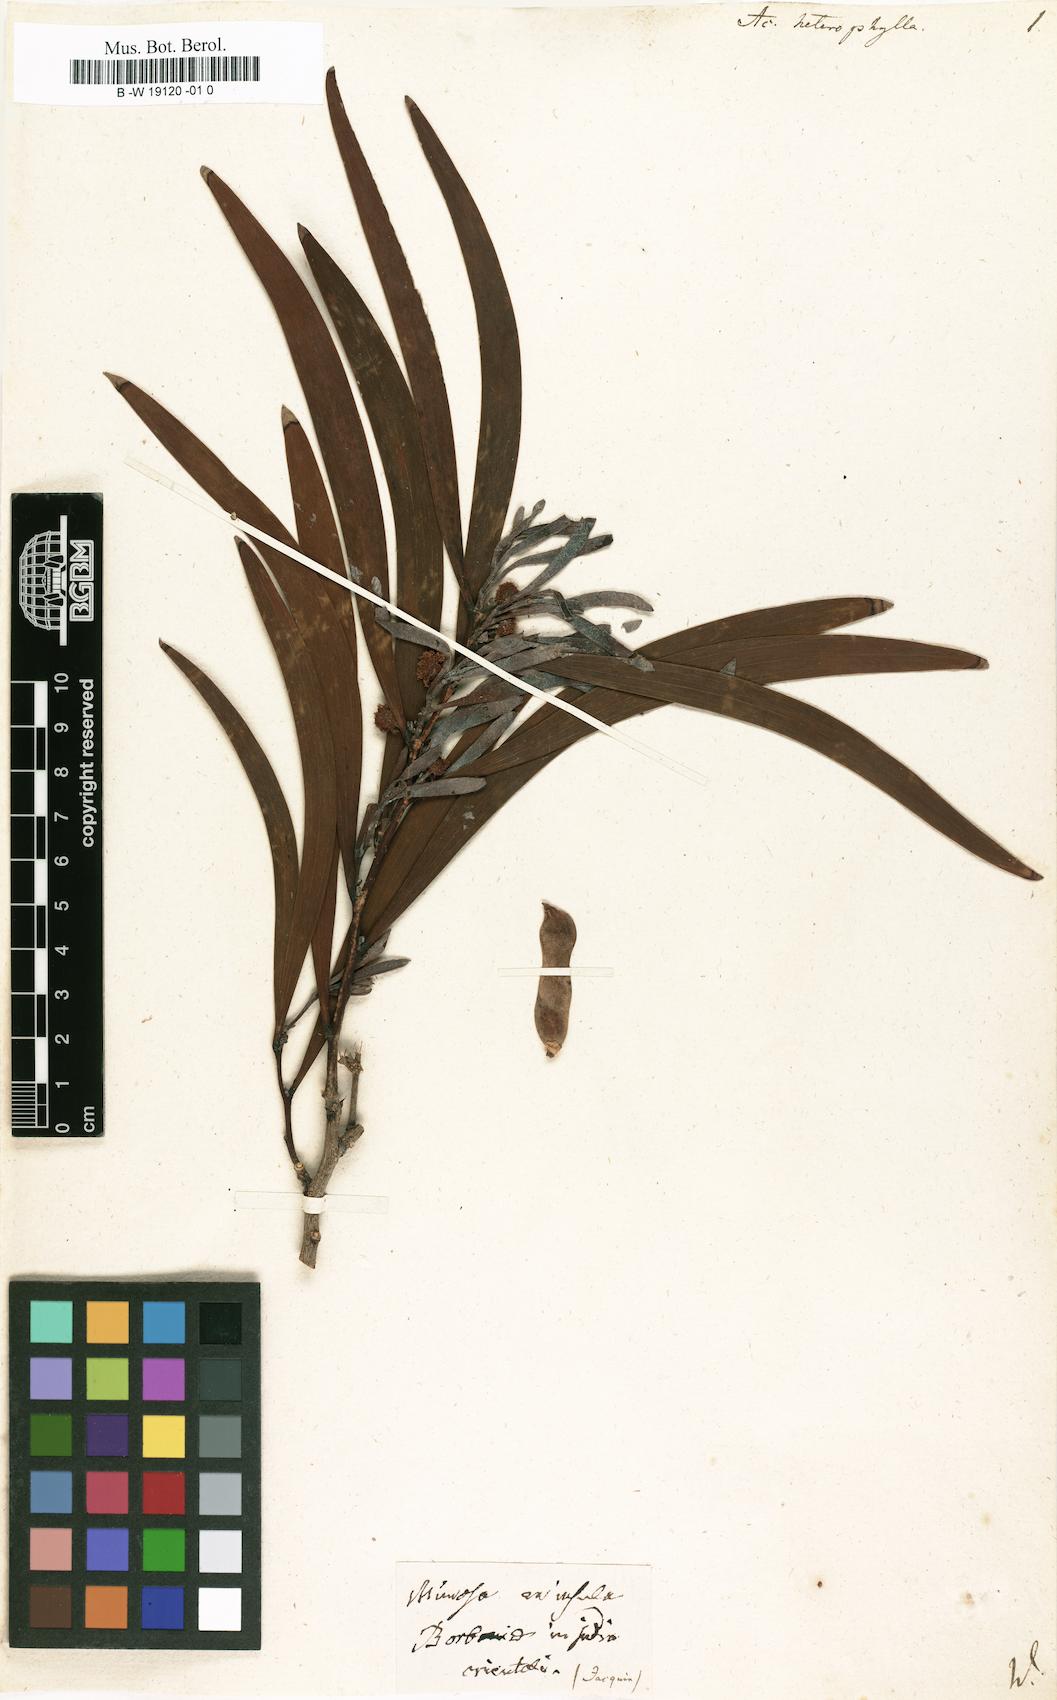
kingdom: Plantae
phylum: Tracheophyta
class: Magnoliopsida
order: Fabales
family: Fabaceae
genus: Acacia
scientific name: Acacia heterophylla
